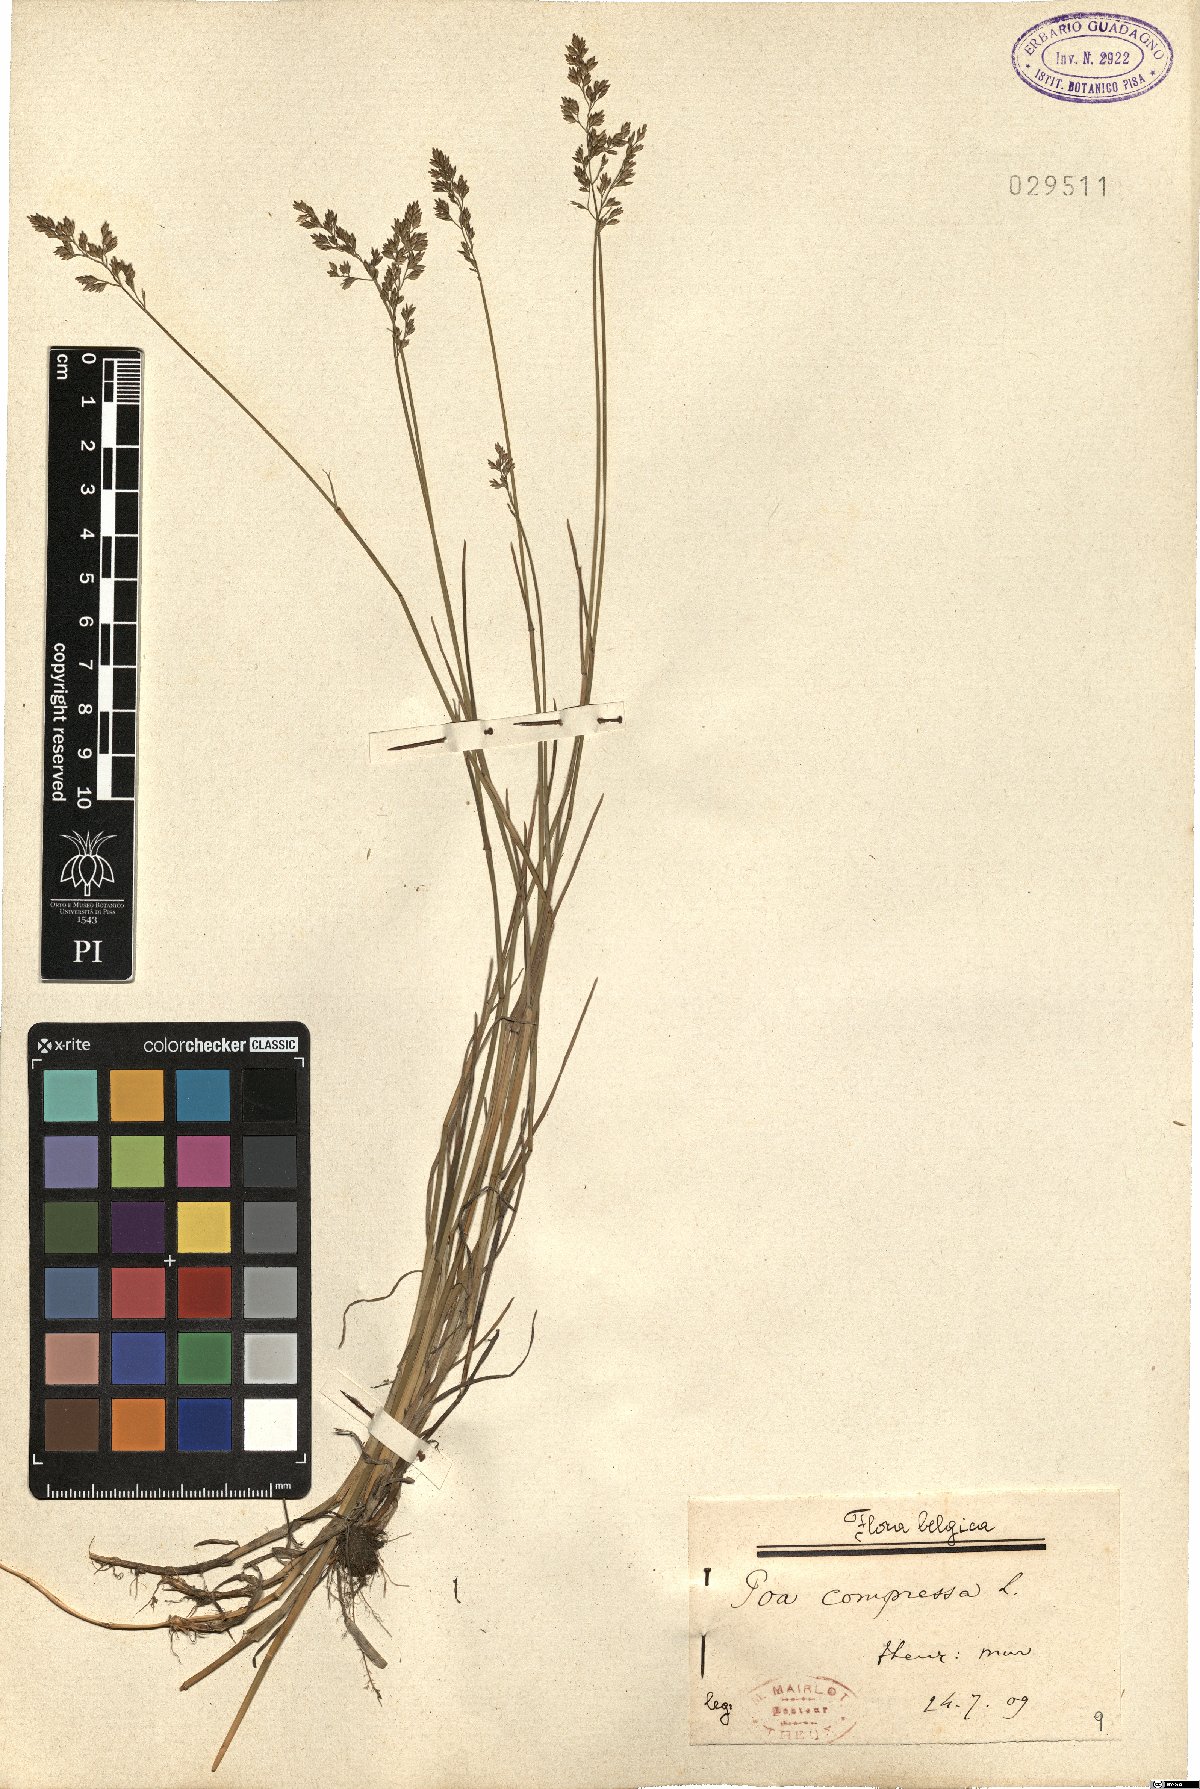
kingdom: Plantae
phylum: Tracheophyta
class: Liliopsida
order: Poales
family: Poaceae
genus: Poa
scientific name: Poa compressa
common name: Canada bluegrass
